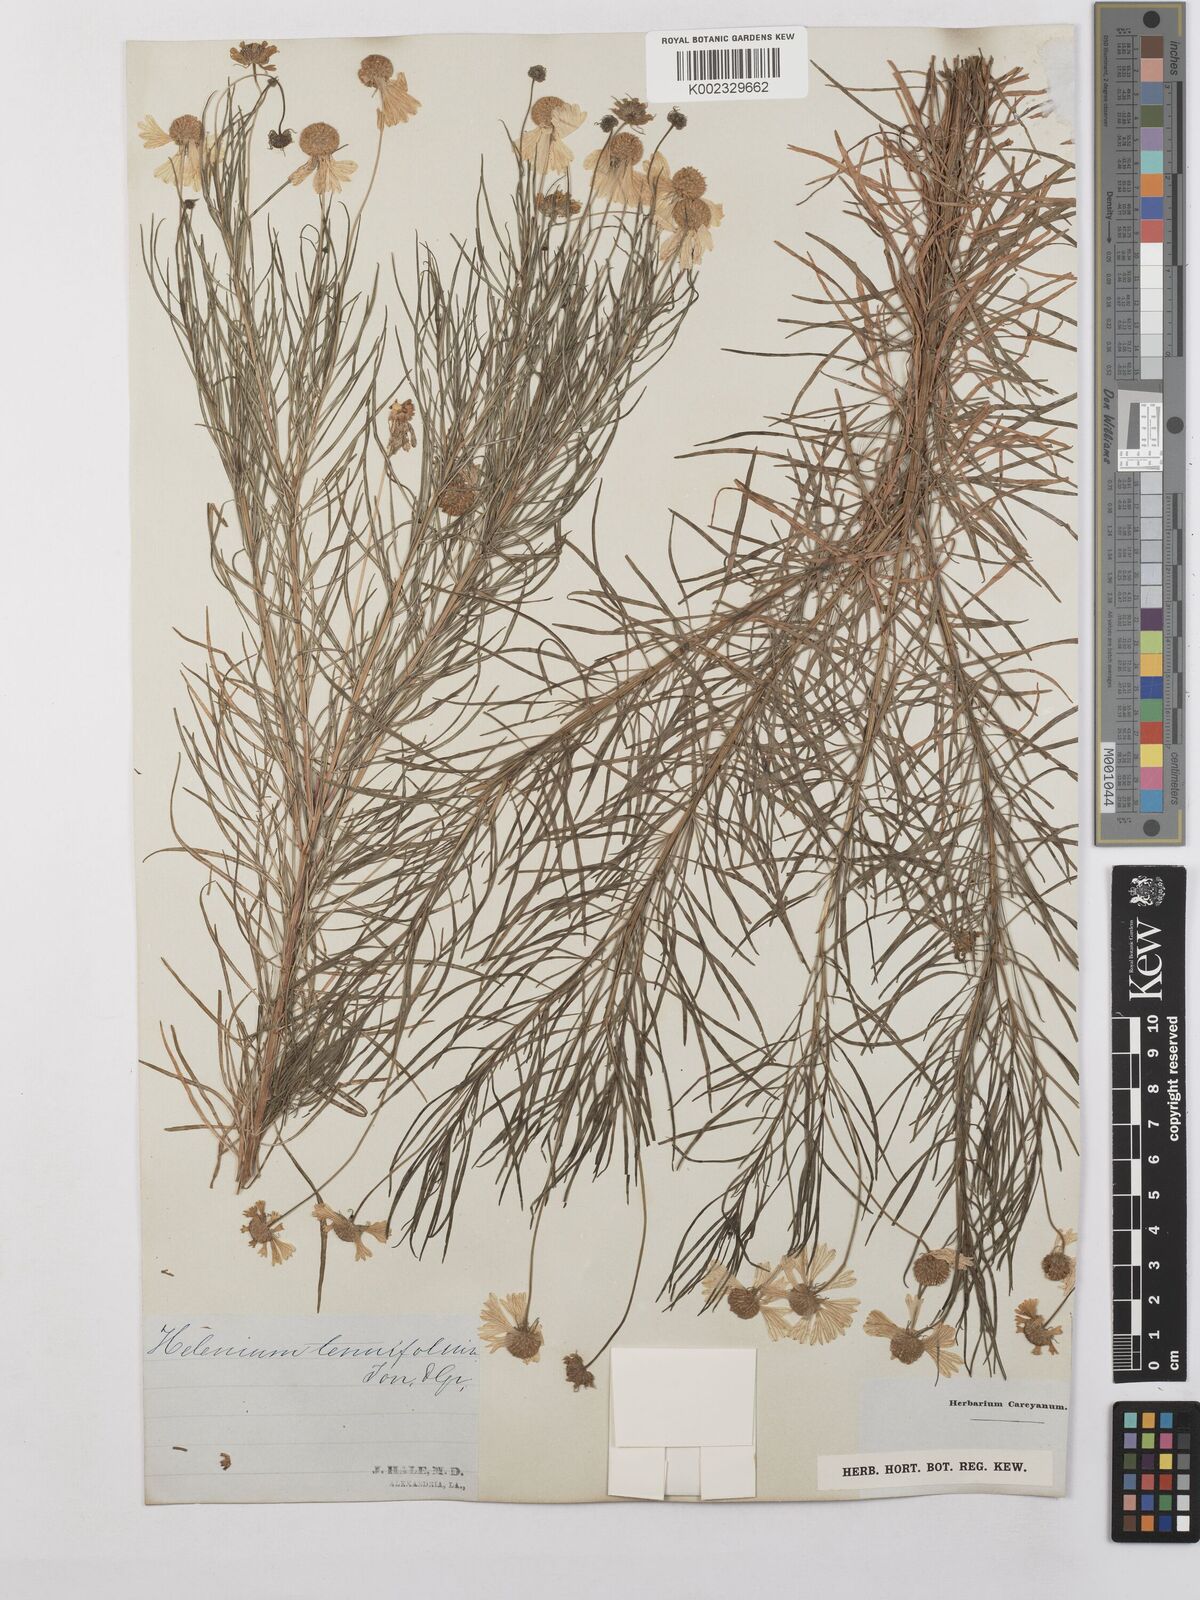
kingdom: Plantae
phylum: Tracheophyta
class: Magnoliopsida
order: Asterales
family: Asteraceae
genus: Helenium
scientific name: Helenium amarum
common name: Bitter sneezeweed
